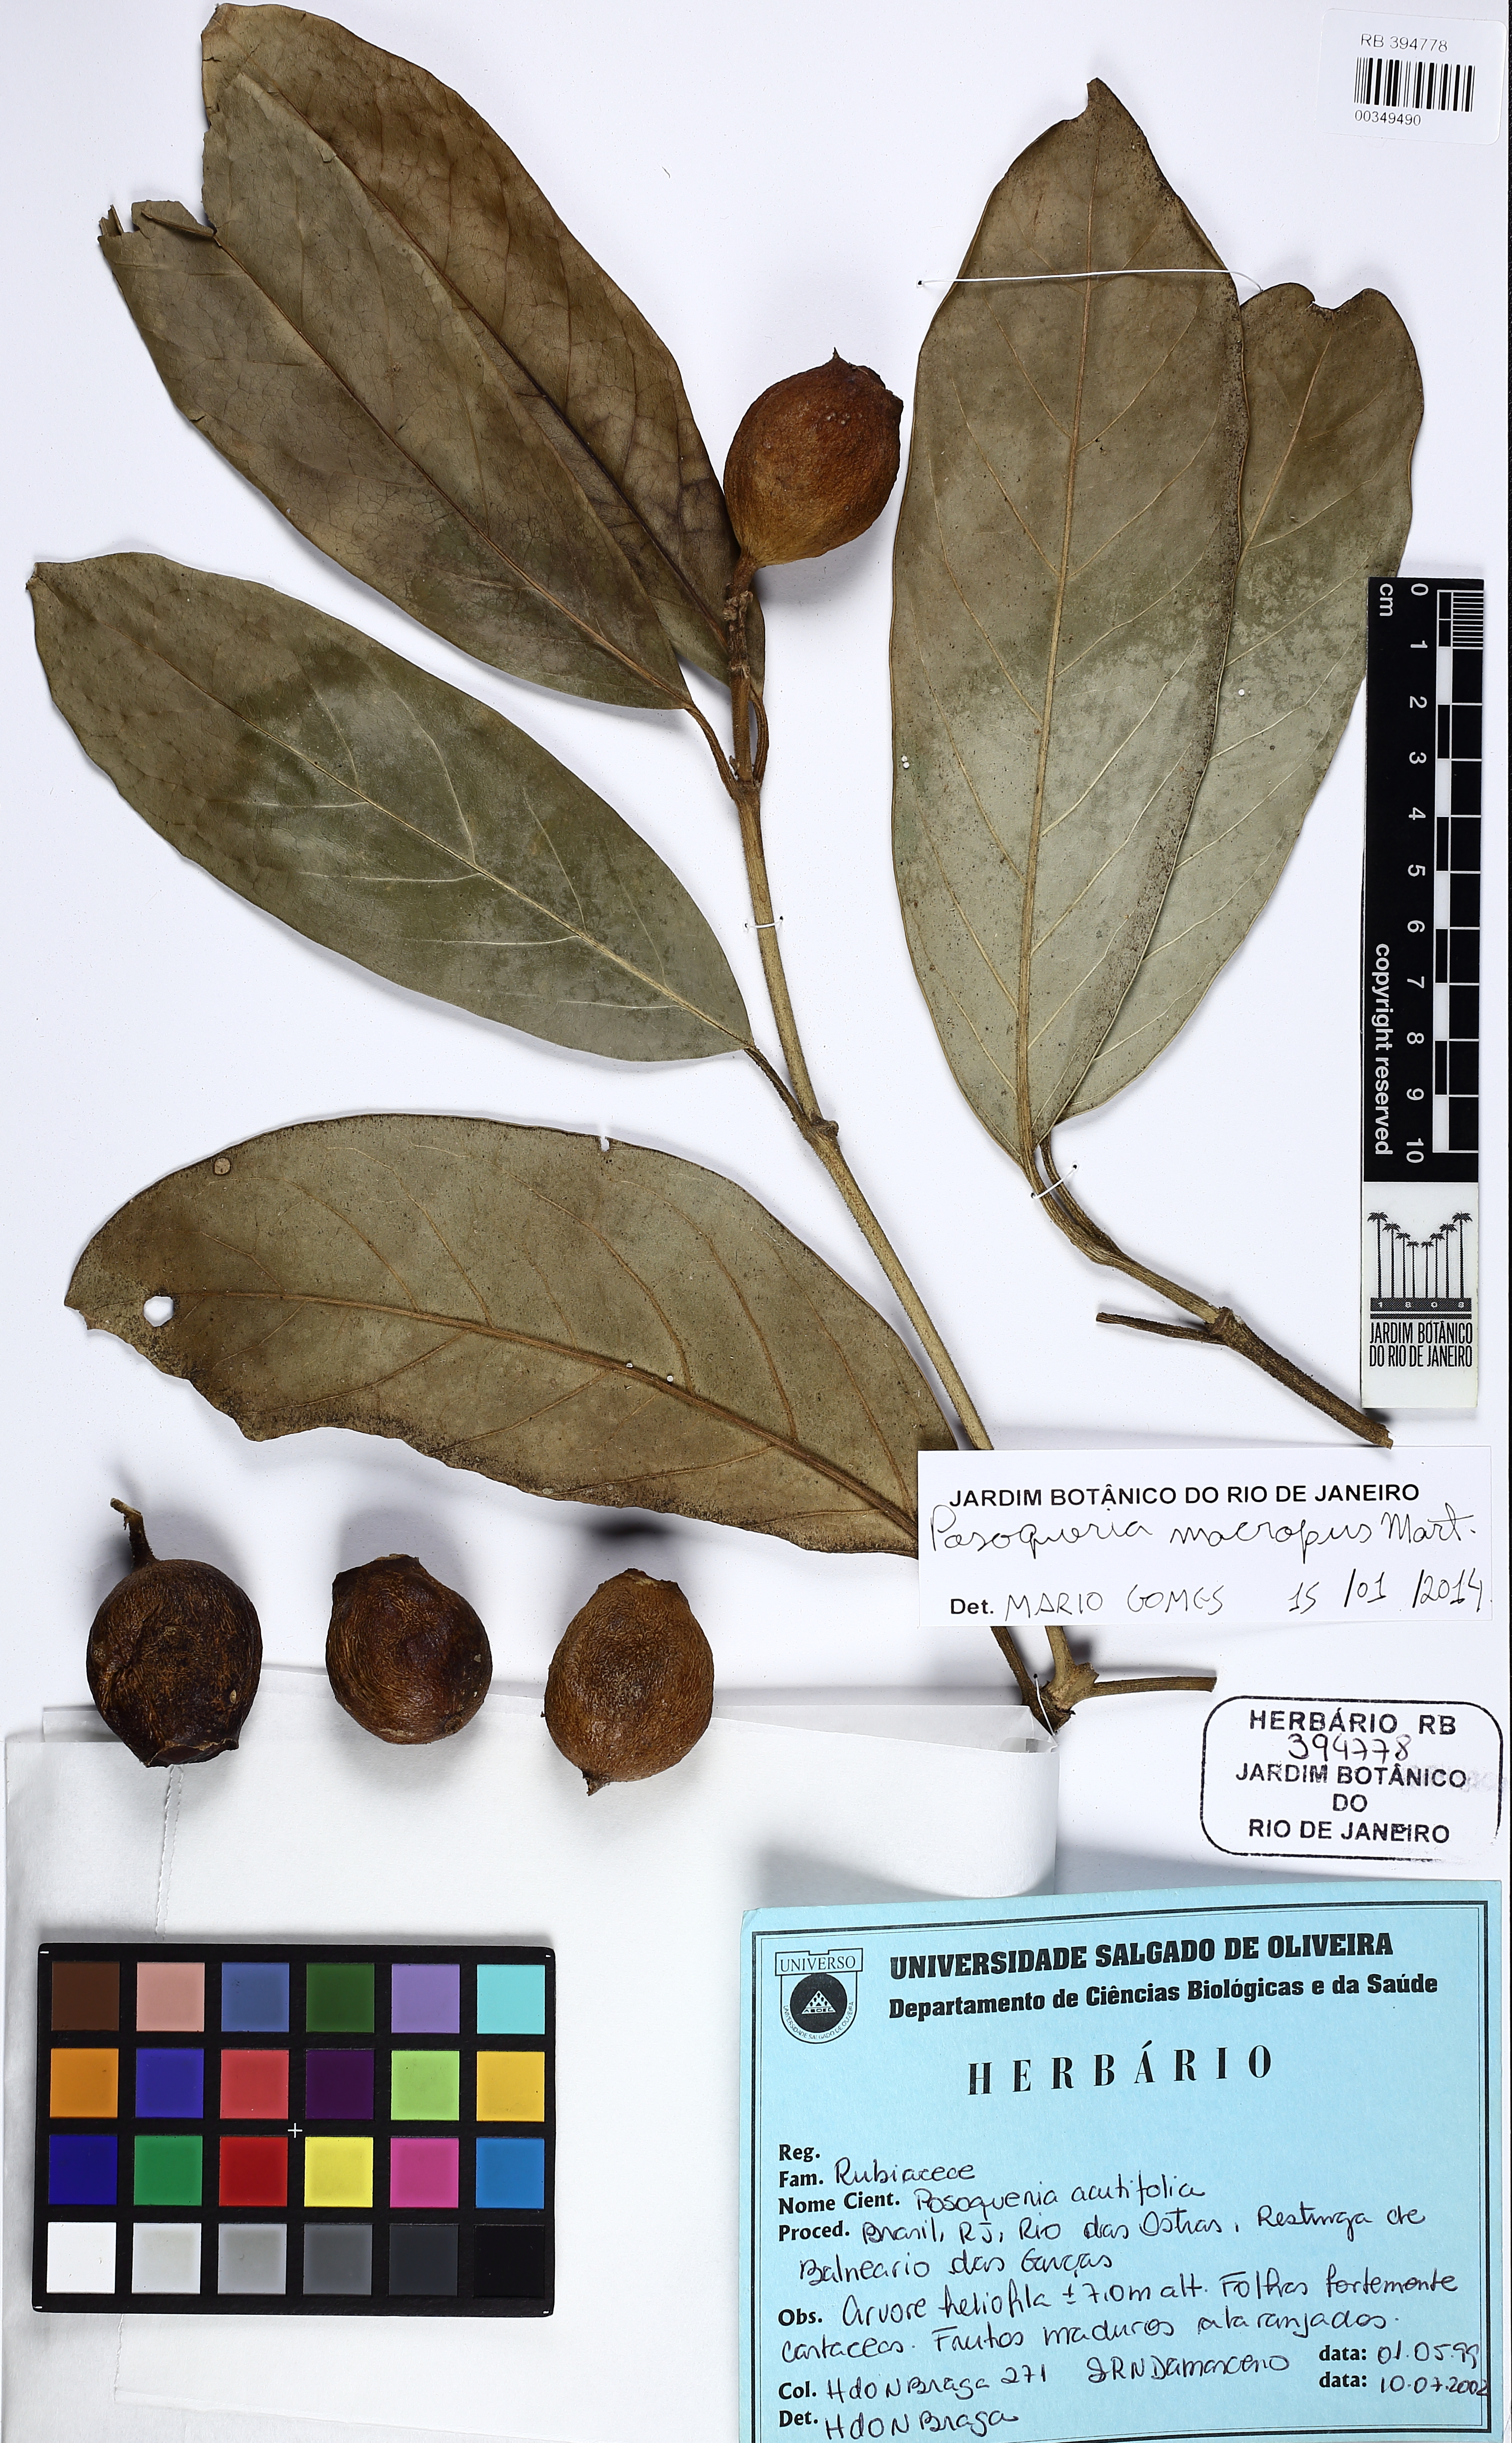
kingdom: Plantae
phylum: Tracheophyta
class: Magnoliopsida
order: Gentianales
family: Rubiaceae
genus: Posoqueria
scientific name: Posoqueria latifolia
